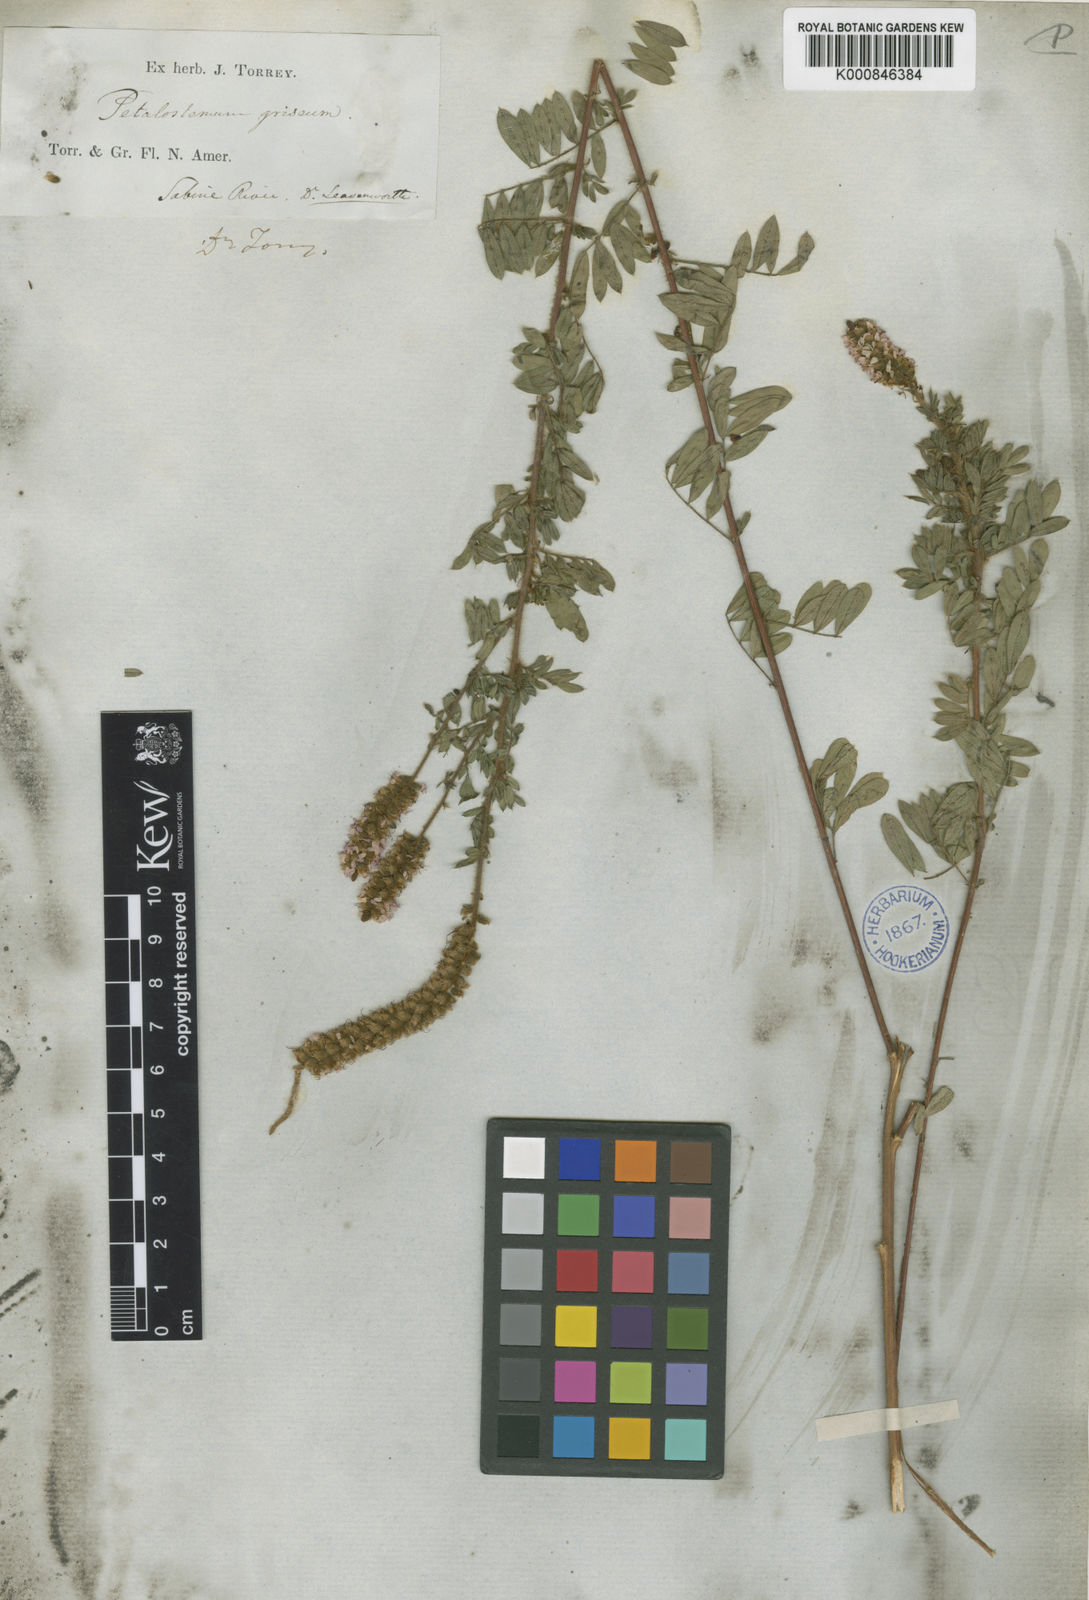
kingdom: Plantae
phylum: Tracheophyta
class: Magnoliopsida
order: Fabales
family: Fabaceae
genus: Dalea
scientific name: Dalea villosa
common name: Silky prairie-clover
